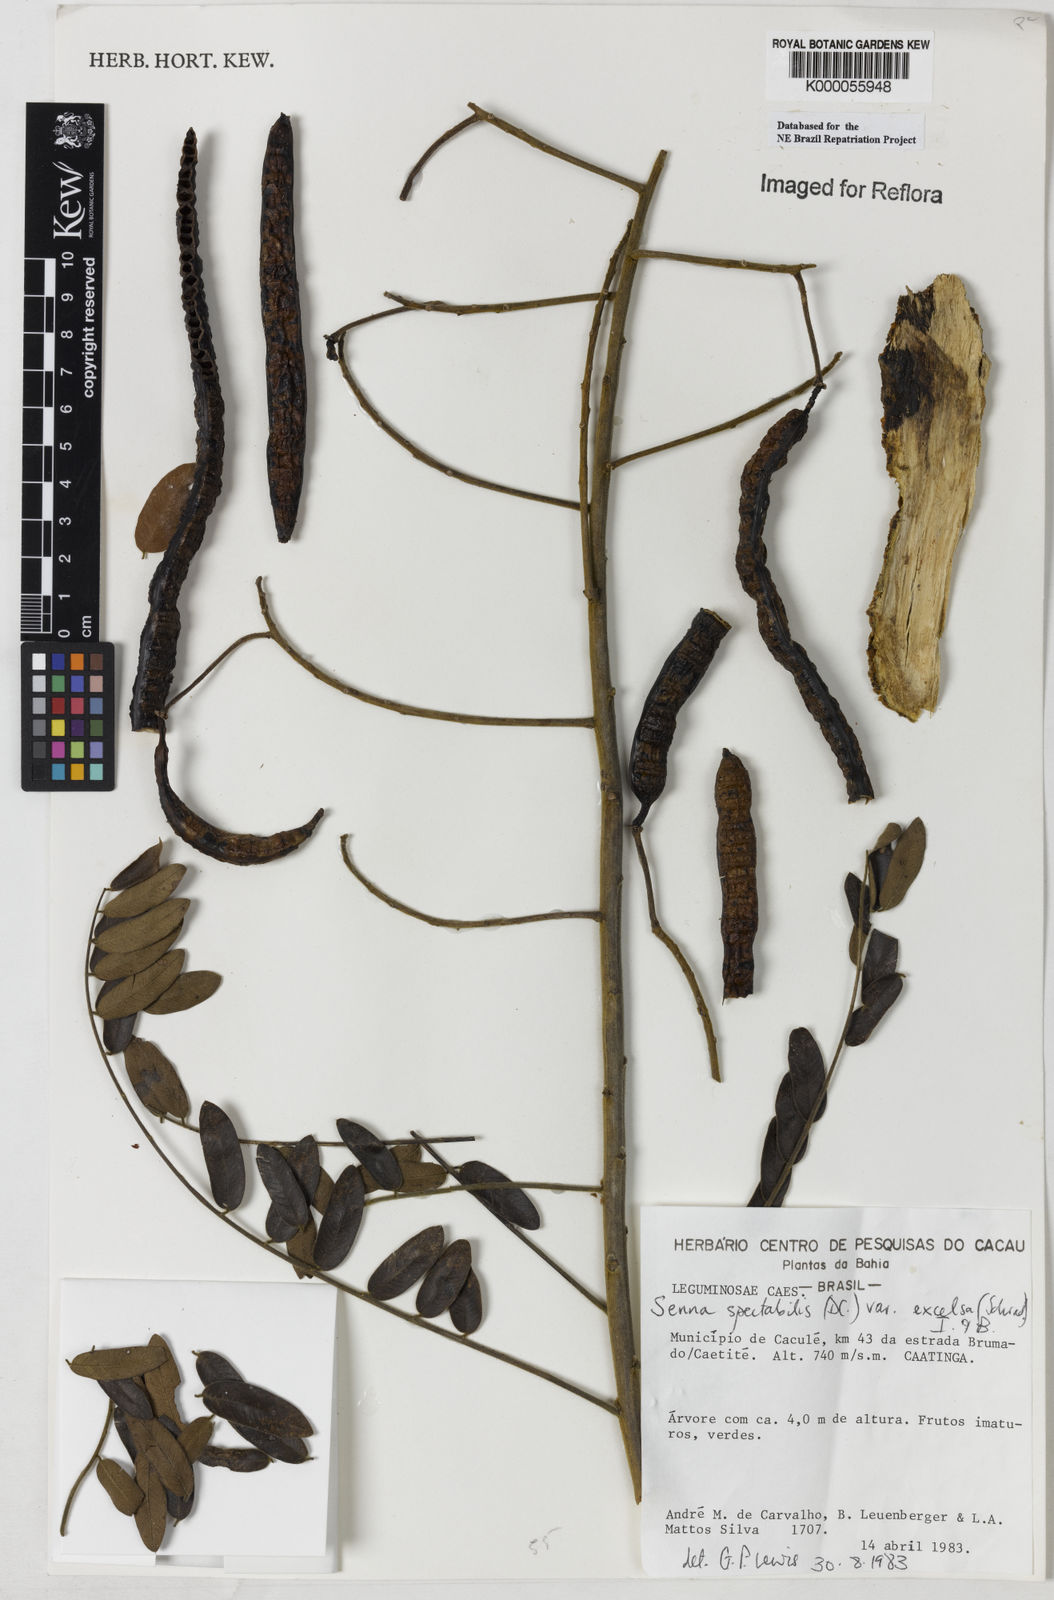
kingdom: Plantae
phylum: Tracheophyta
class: Magnoliopsida
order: Fabales
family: Fabaceae
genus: Senna
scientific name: Senna spectabilis
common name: Casia amarilla
